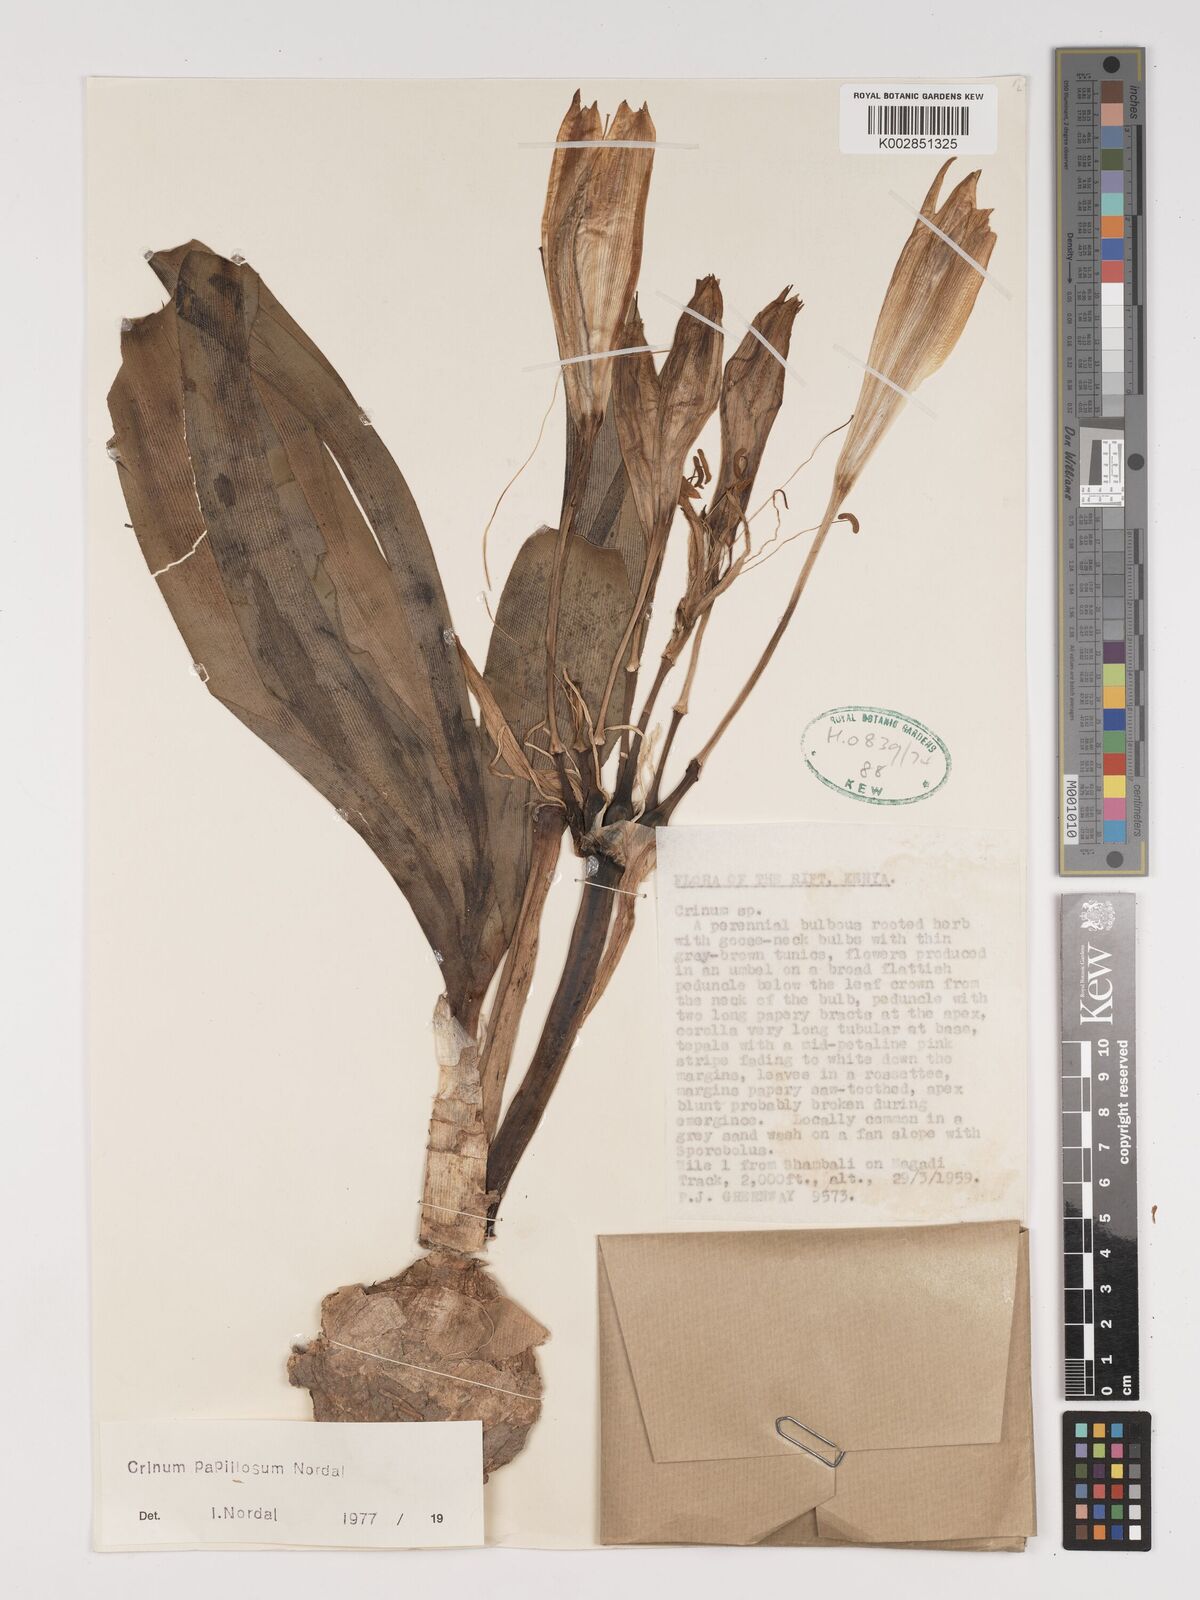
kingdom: Plantae
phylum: Tracheophyta
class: Liliopsida
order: Asparagales
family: Amaryllidaceae
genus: Crinum
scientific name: Crinum papillosum
